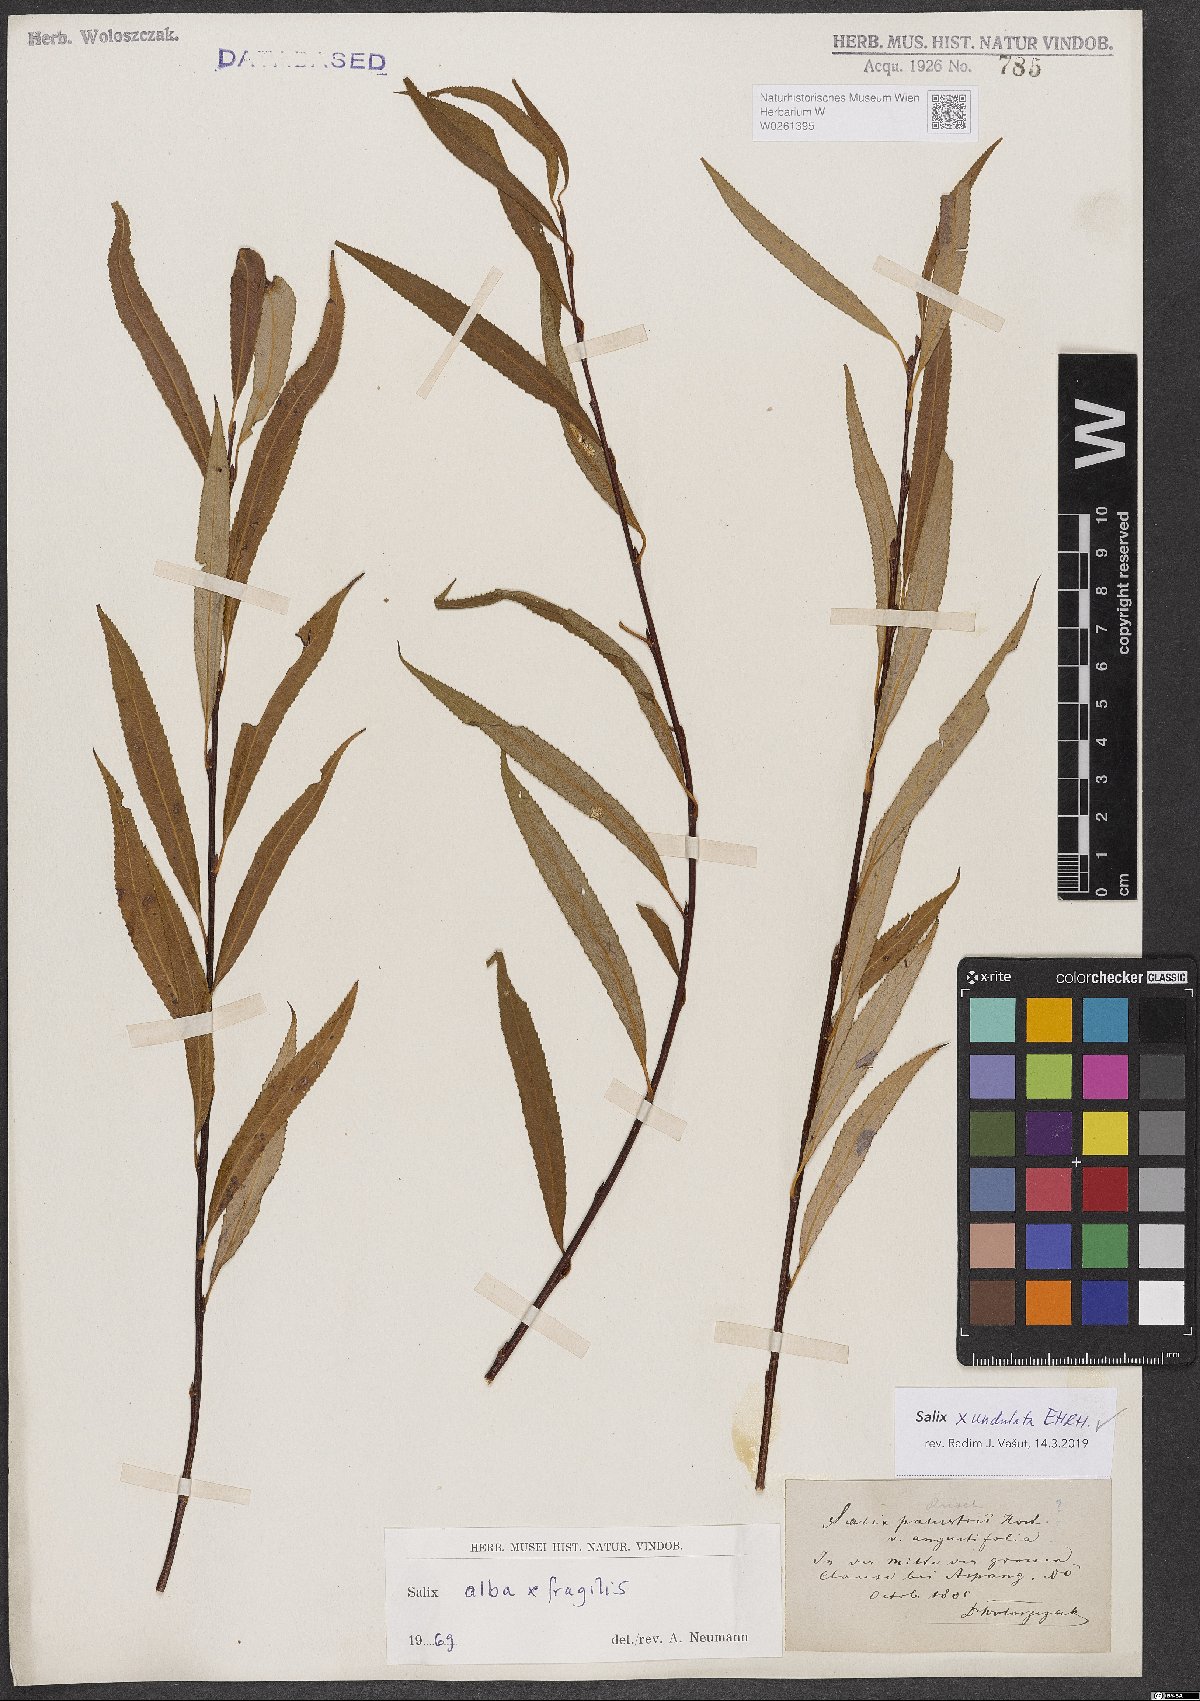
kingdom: Plantae
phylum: Tracheophyta
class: Magnoliopsida
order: Malpighiales
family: Salicaceae
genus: Salix
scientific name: Salix undulata
